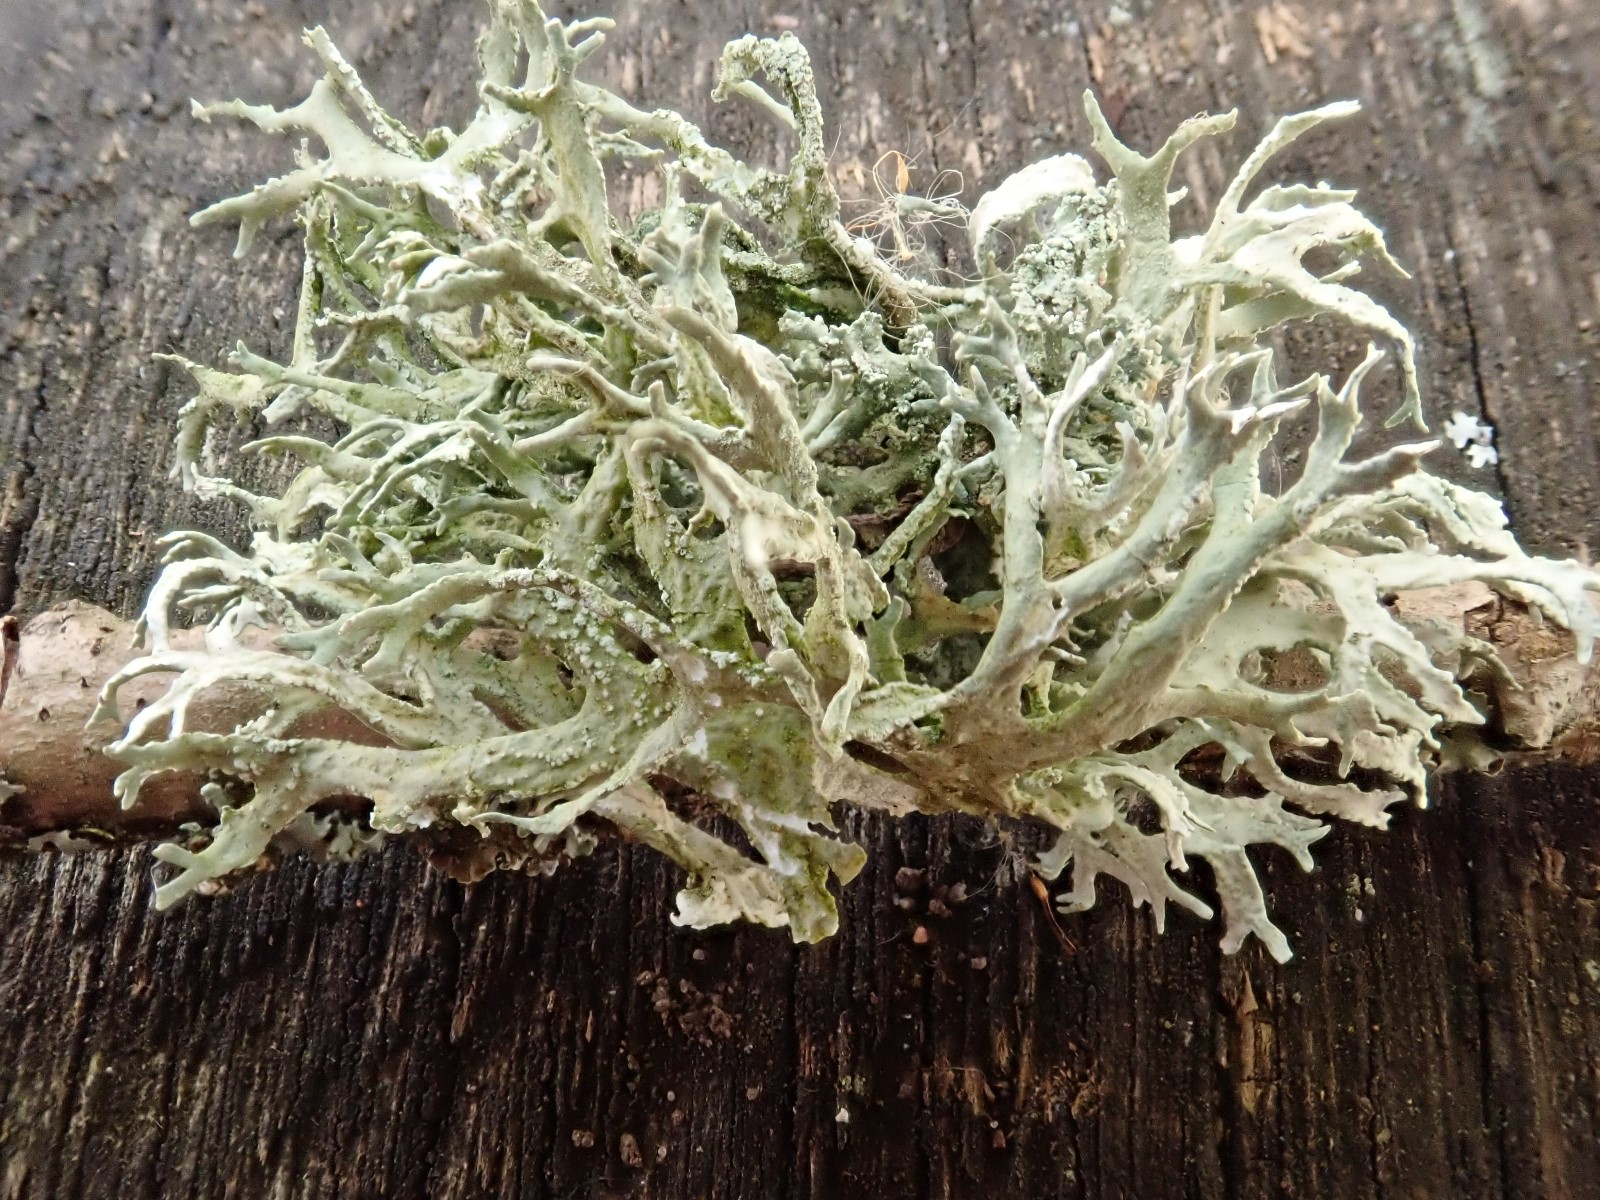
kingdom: Fungi
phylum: Ascomycota
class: Lecanoromycetes
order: Lecanorales
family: Parmeliaceae
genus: Evernia
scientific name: Evernia prunastri
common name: almindelig slåenlav
